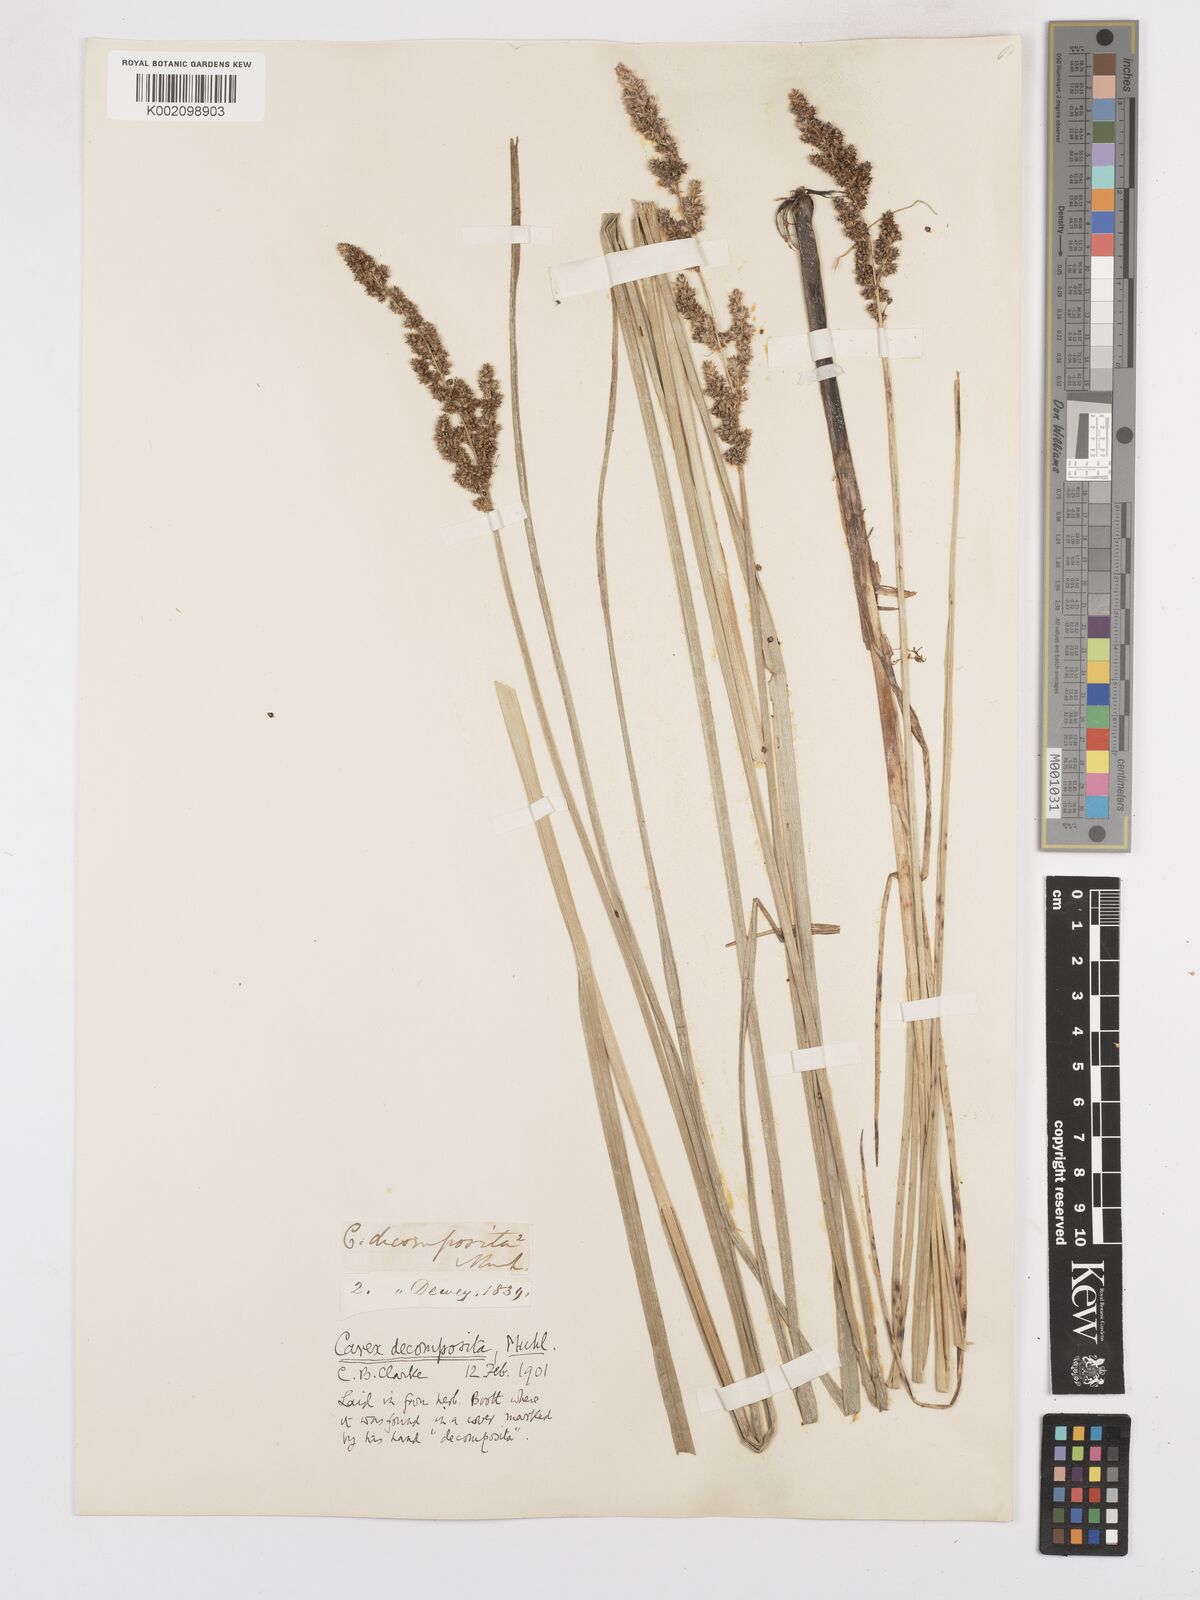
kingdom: Plantae
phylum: Tracheophyta
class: Liliopsida
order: Poales
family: Cyperaceae
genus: Carex
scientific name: Carex decomposita
